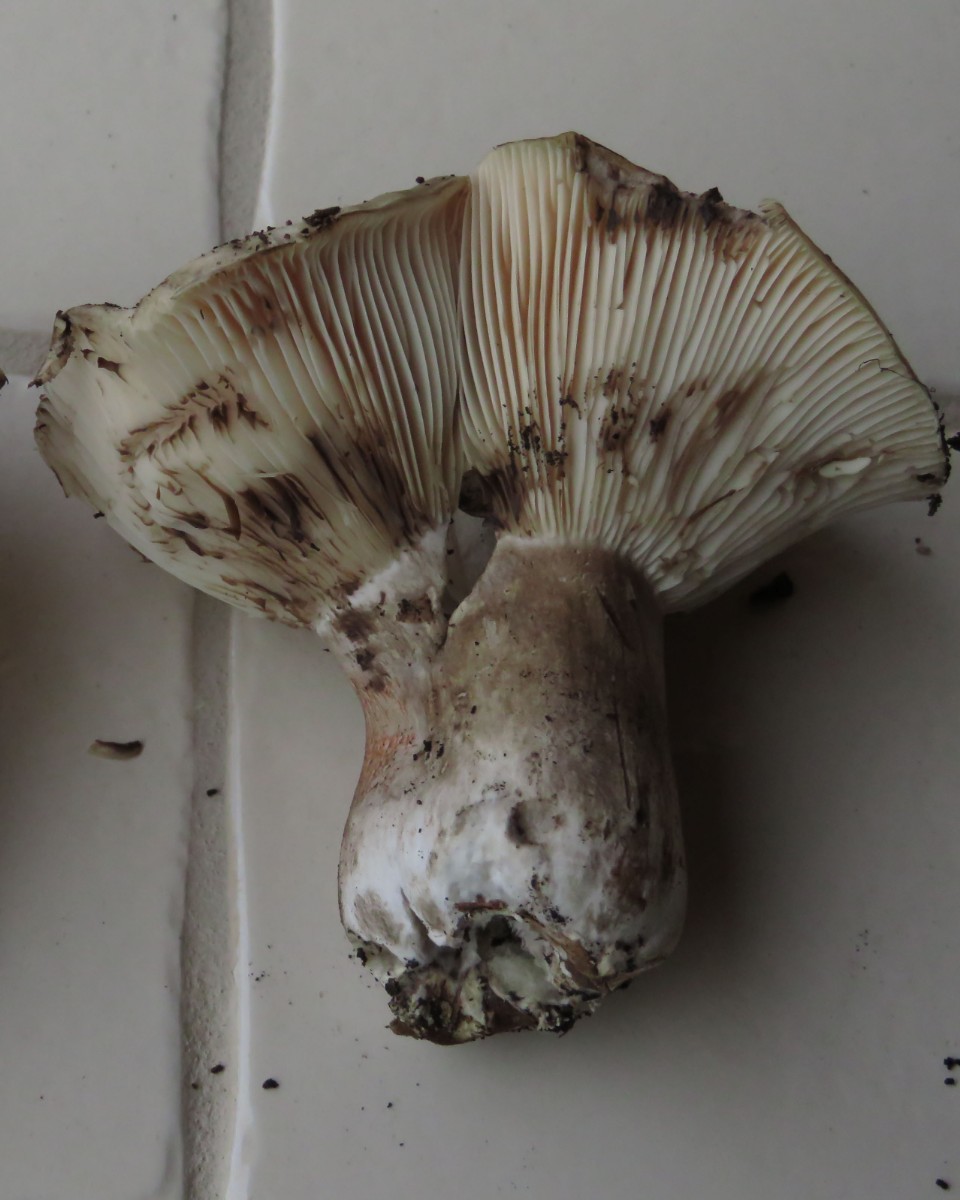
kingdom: Fungi
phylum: Basidiomycota
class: Agaricomycetes
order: Russulales
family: Russulaceae
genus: Russula
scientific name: Russula acrifolia
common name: skarpbladet skørhat
